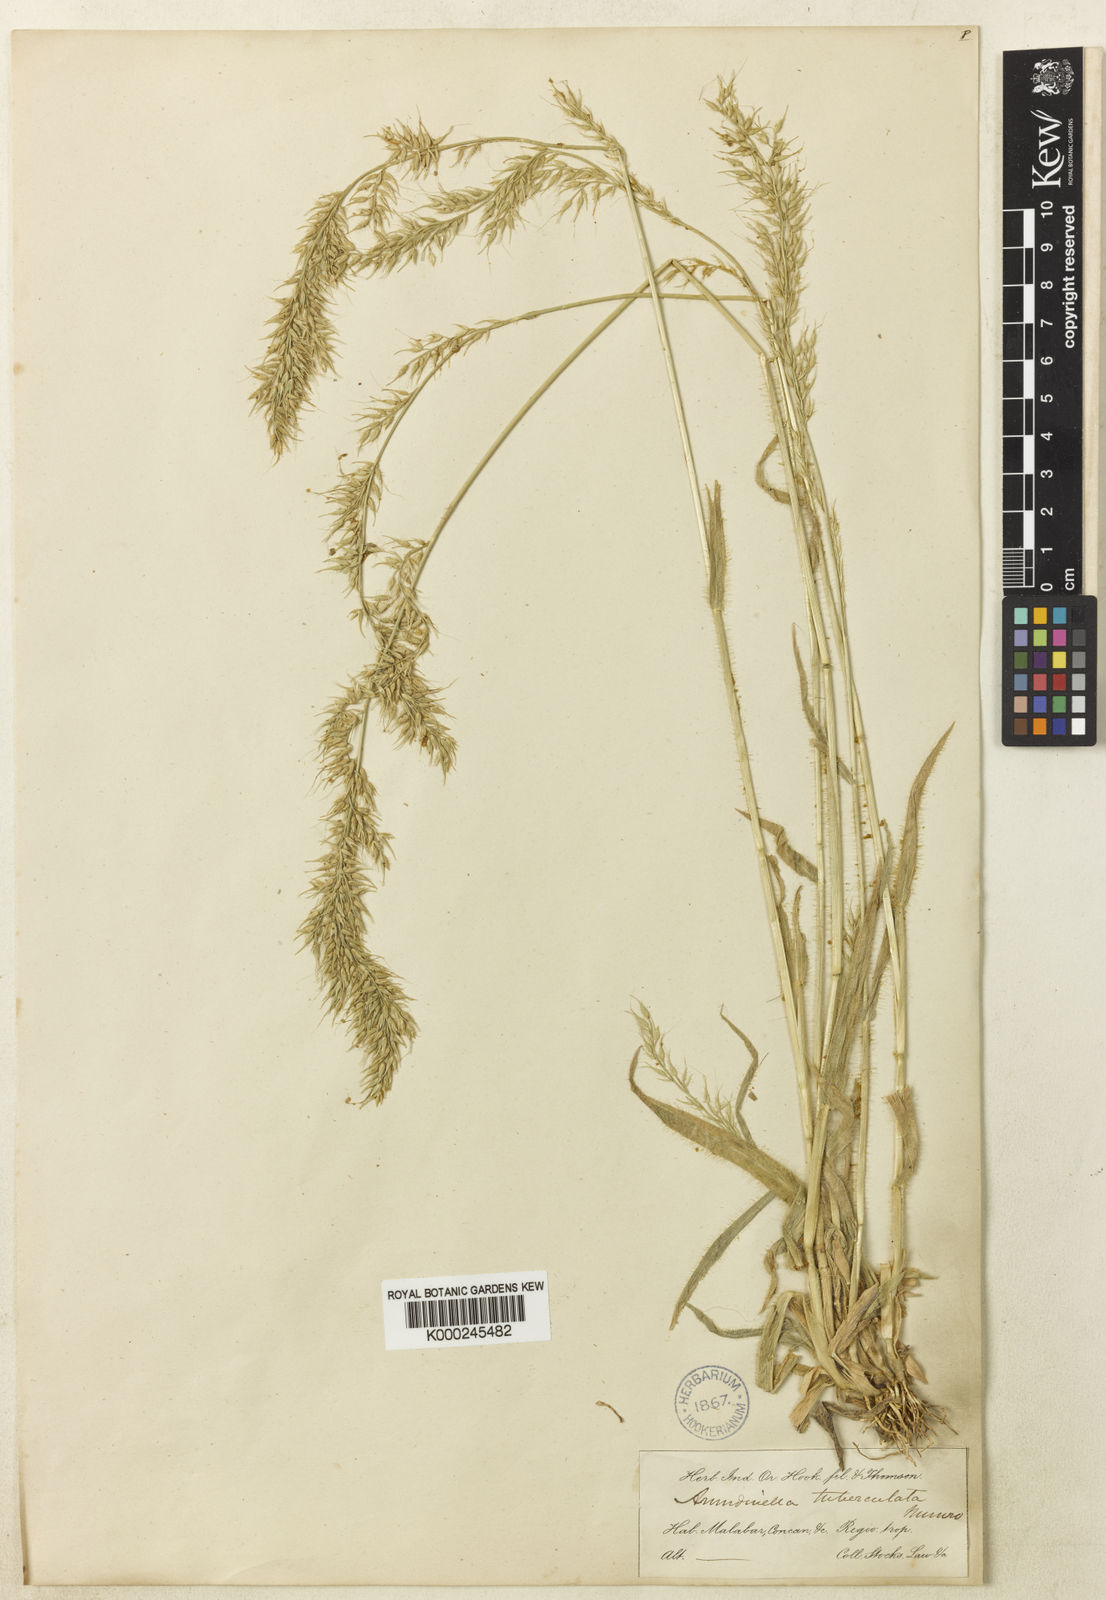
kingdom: Plantae
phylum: Tracheophyta
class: Liliopsida
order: Poales
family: Poaceae
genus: Arundinella
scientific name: Arundinella tuberculata
